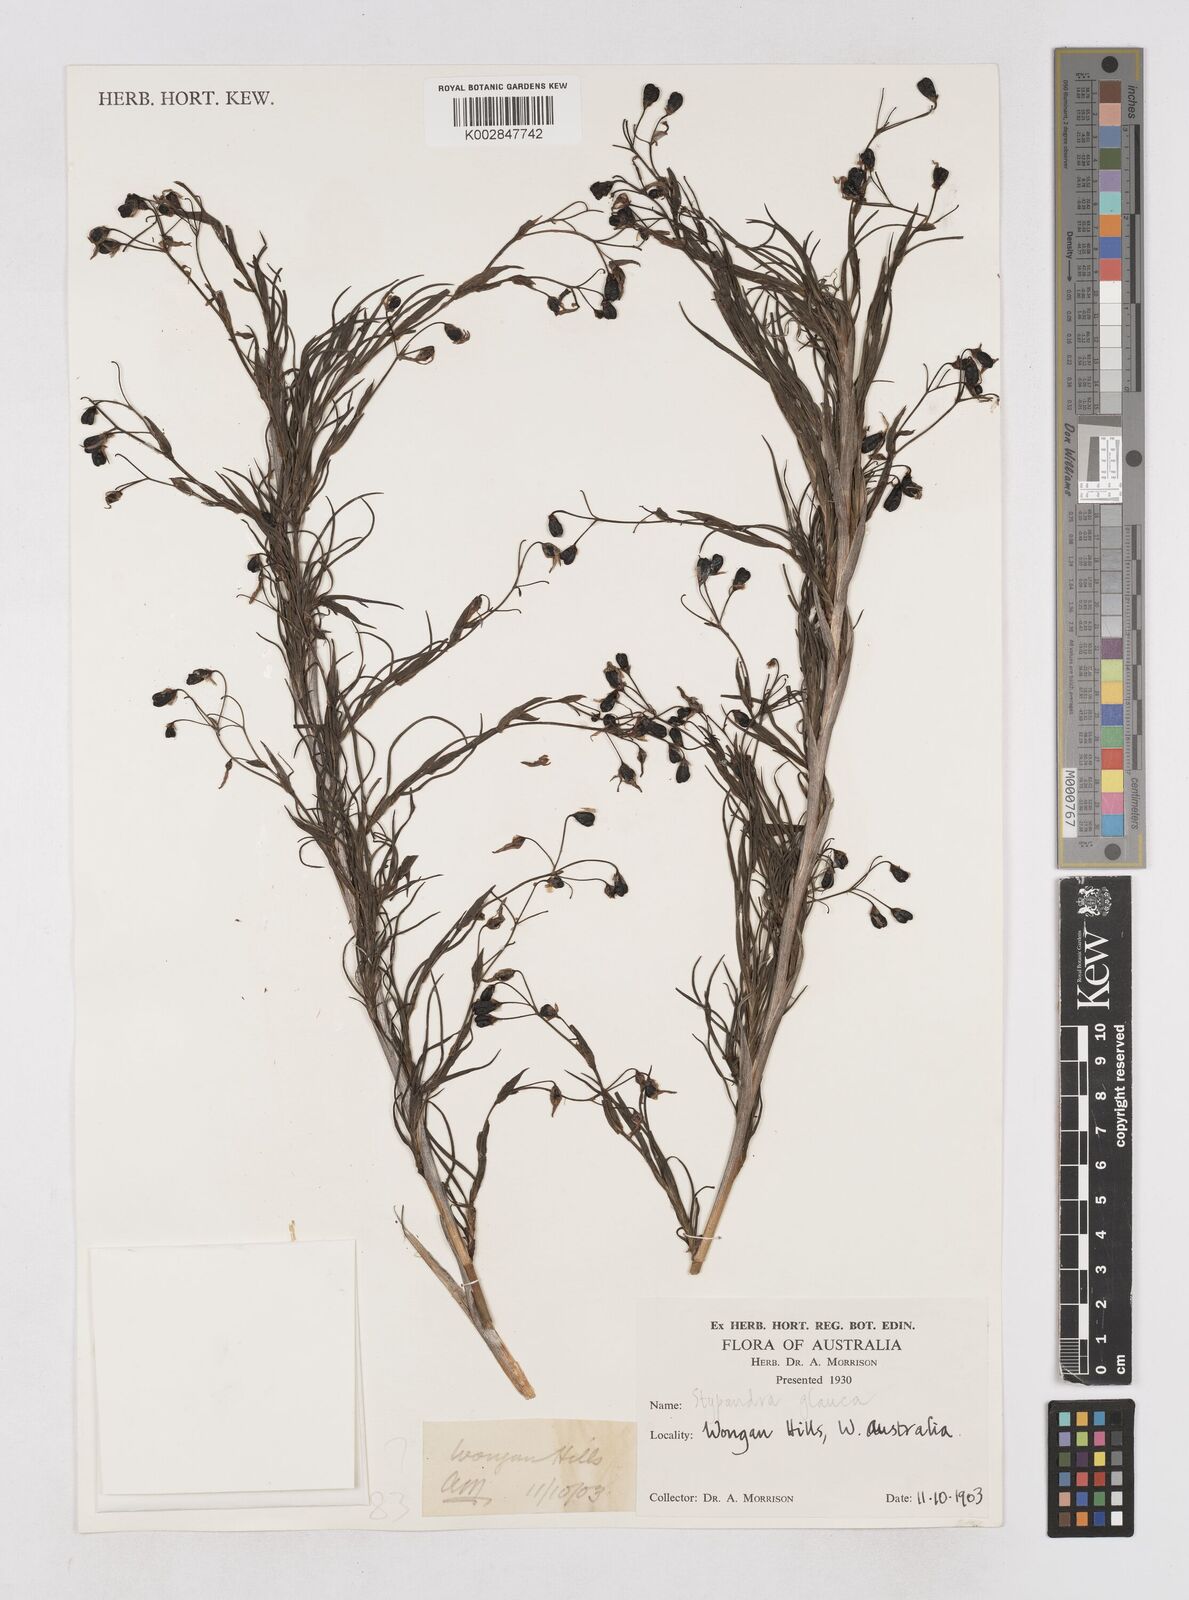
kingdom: Plantae
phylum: Tracheophyta
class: Liliopsida
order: Asparagales
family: Asphodelaceae
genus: Stypandra
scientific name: Stypandra glauca
